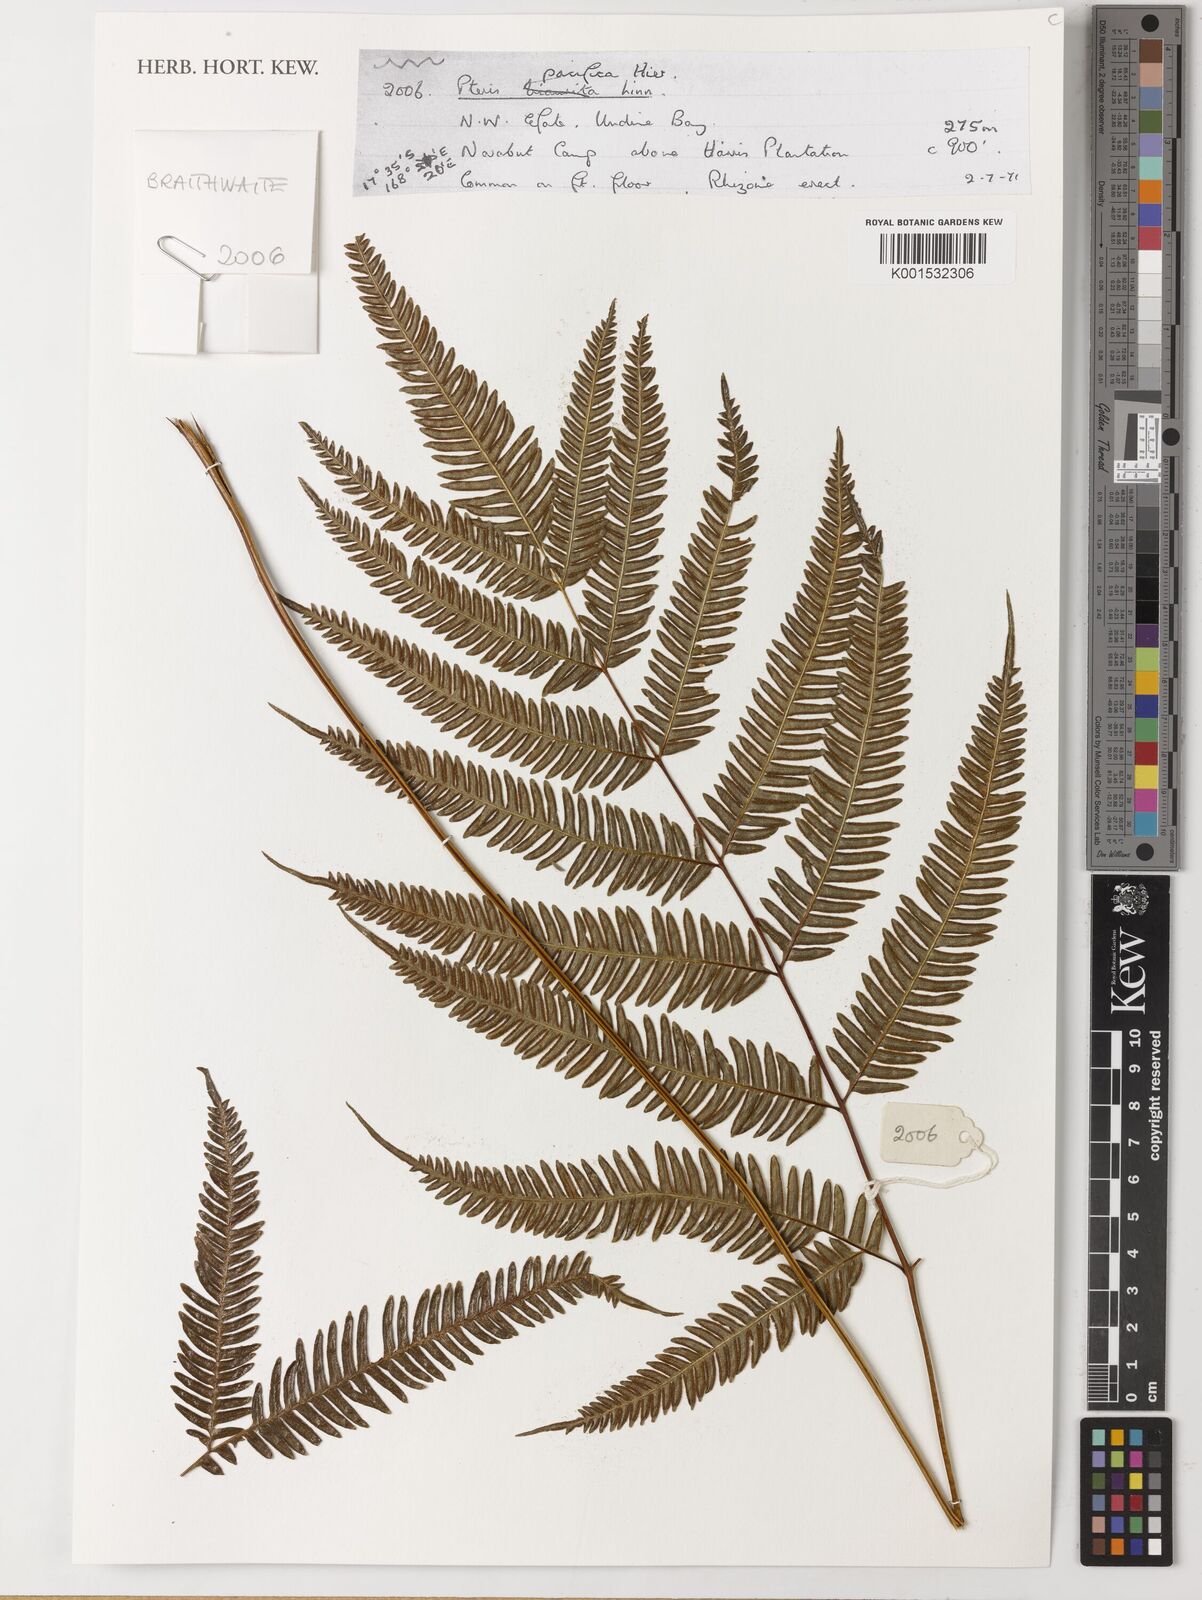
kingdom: Plantae
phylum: Tracheophyta
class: Polypodiopsida
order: Polypodiales
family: Pteridaceae
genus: Pteris
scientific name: Pteris biaurita
